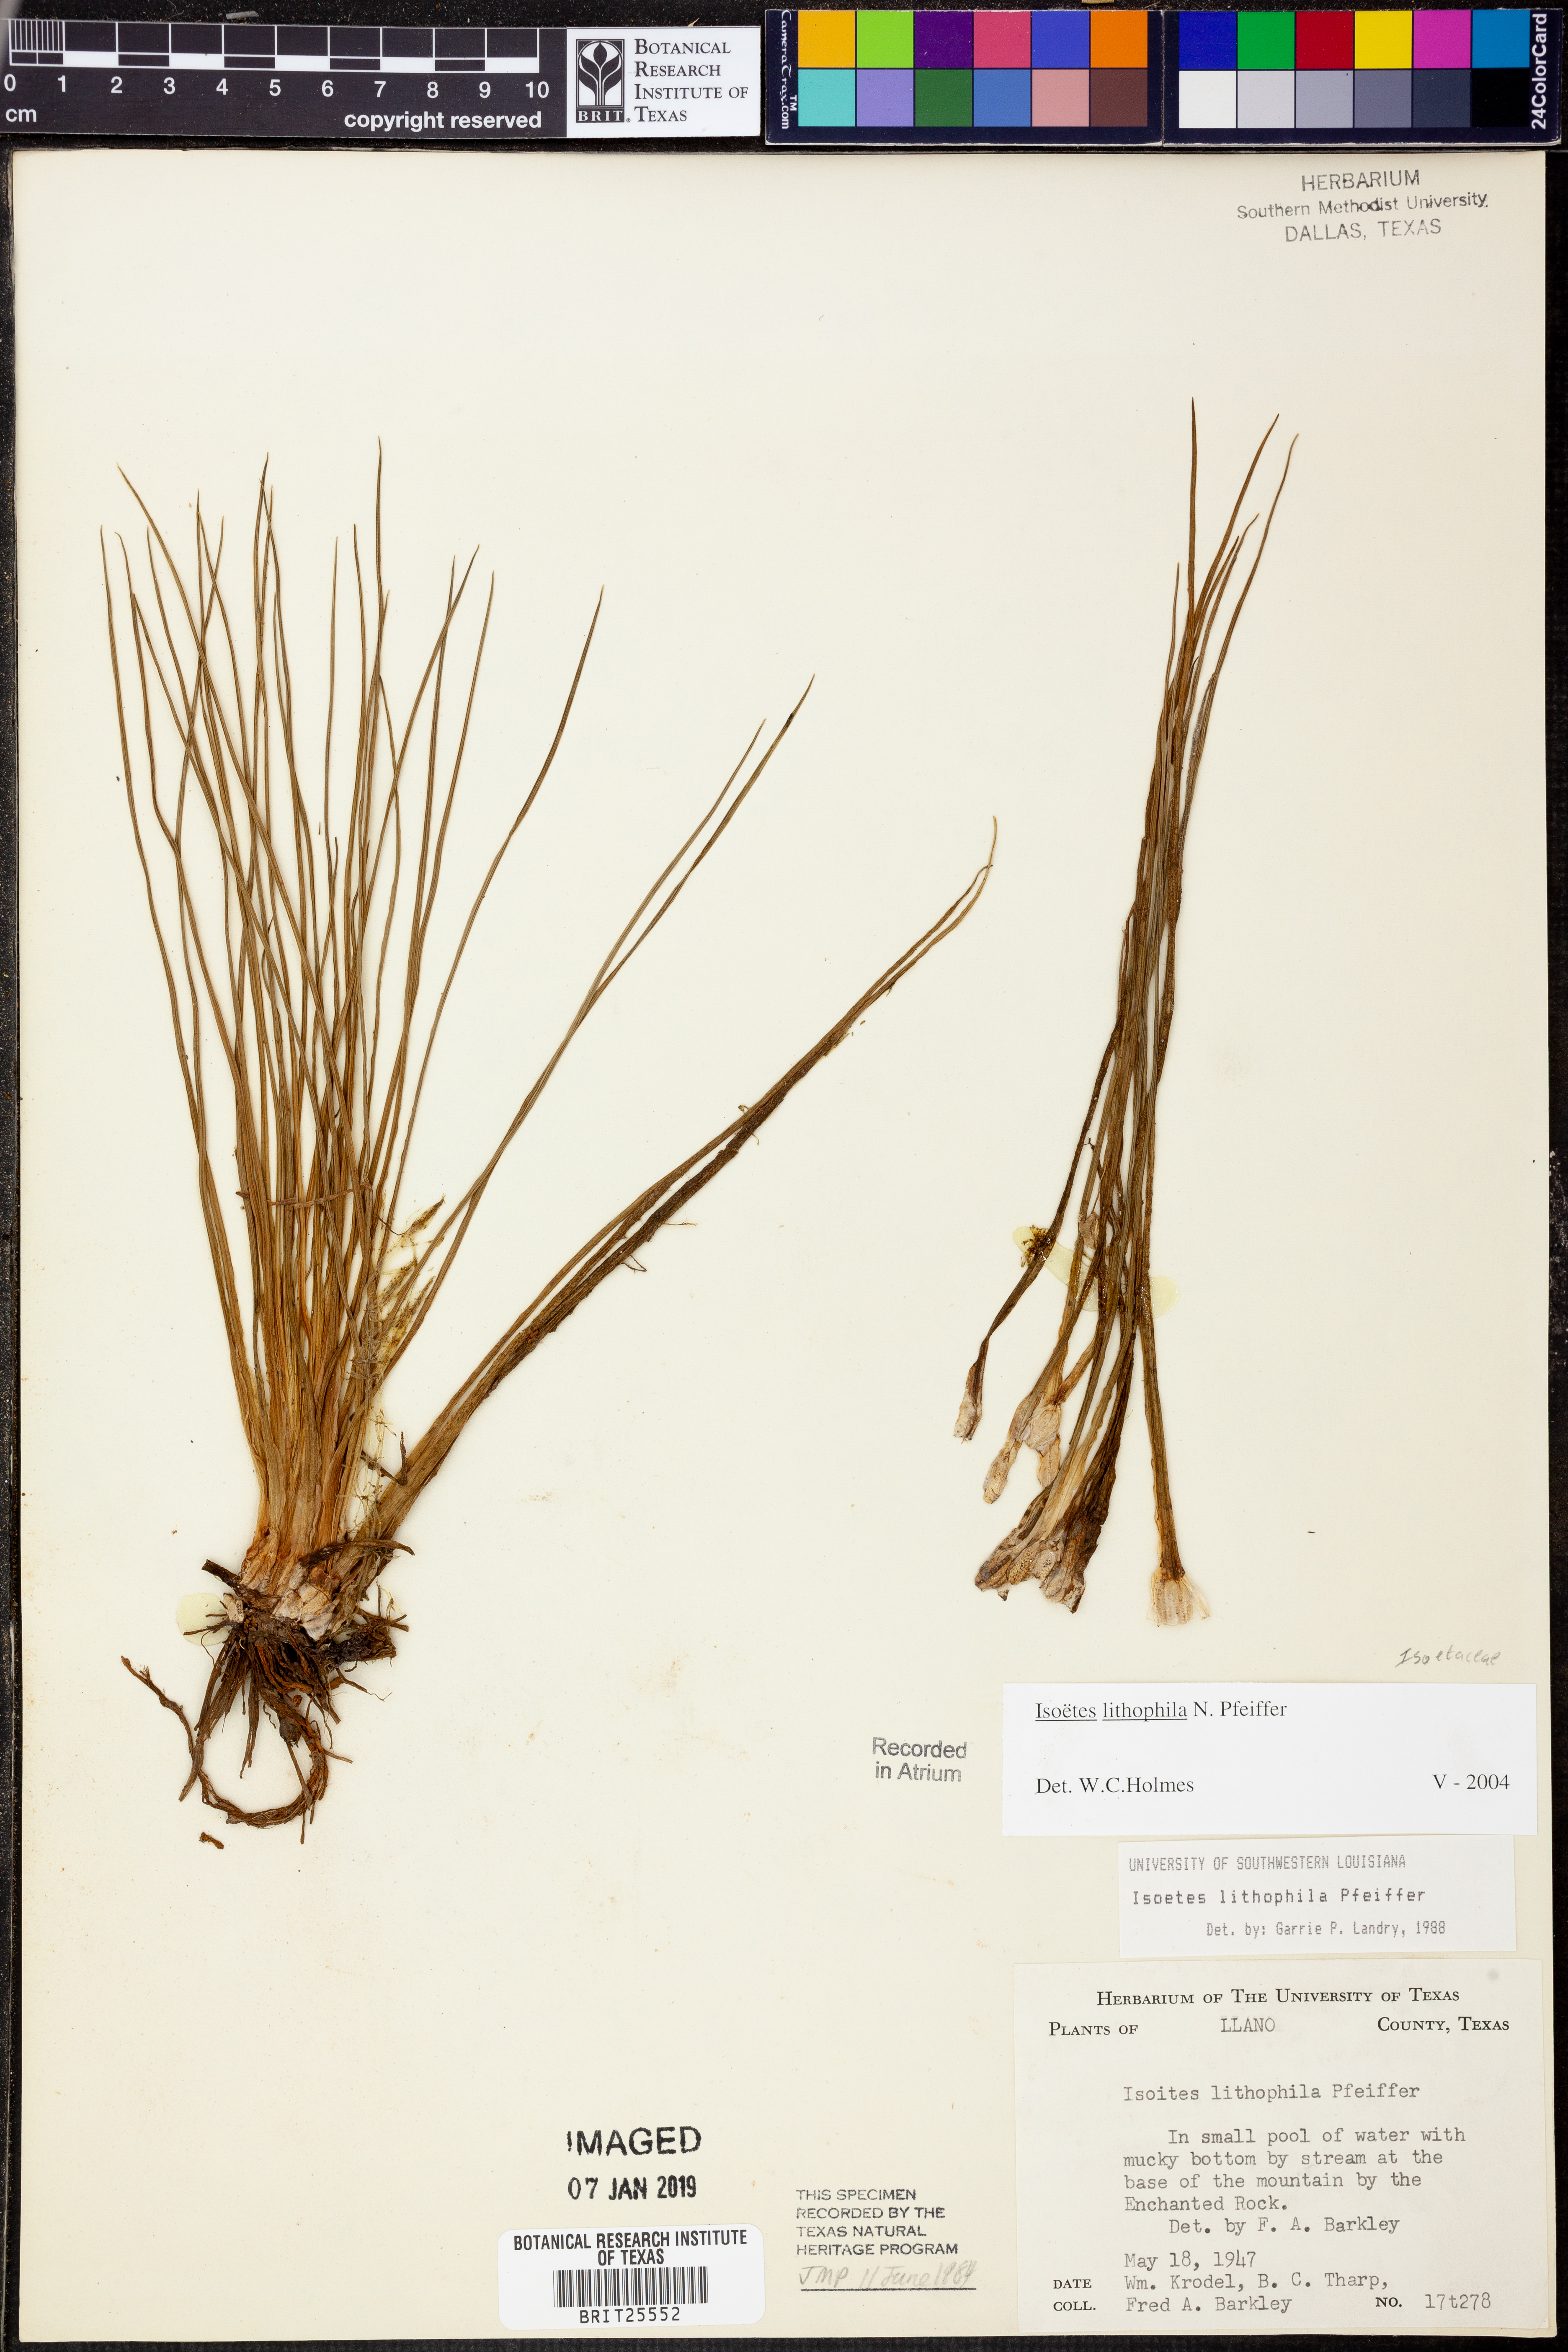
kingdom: Plantae
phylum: Tracheophyta
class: Lycopodiopsida
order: Isoetales
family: Isoetaceae
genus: Isoetes
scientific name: Isoetes lithophila
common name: Rock quillwort
